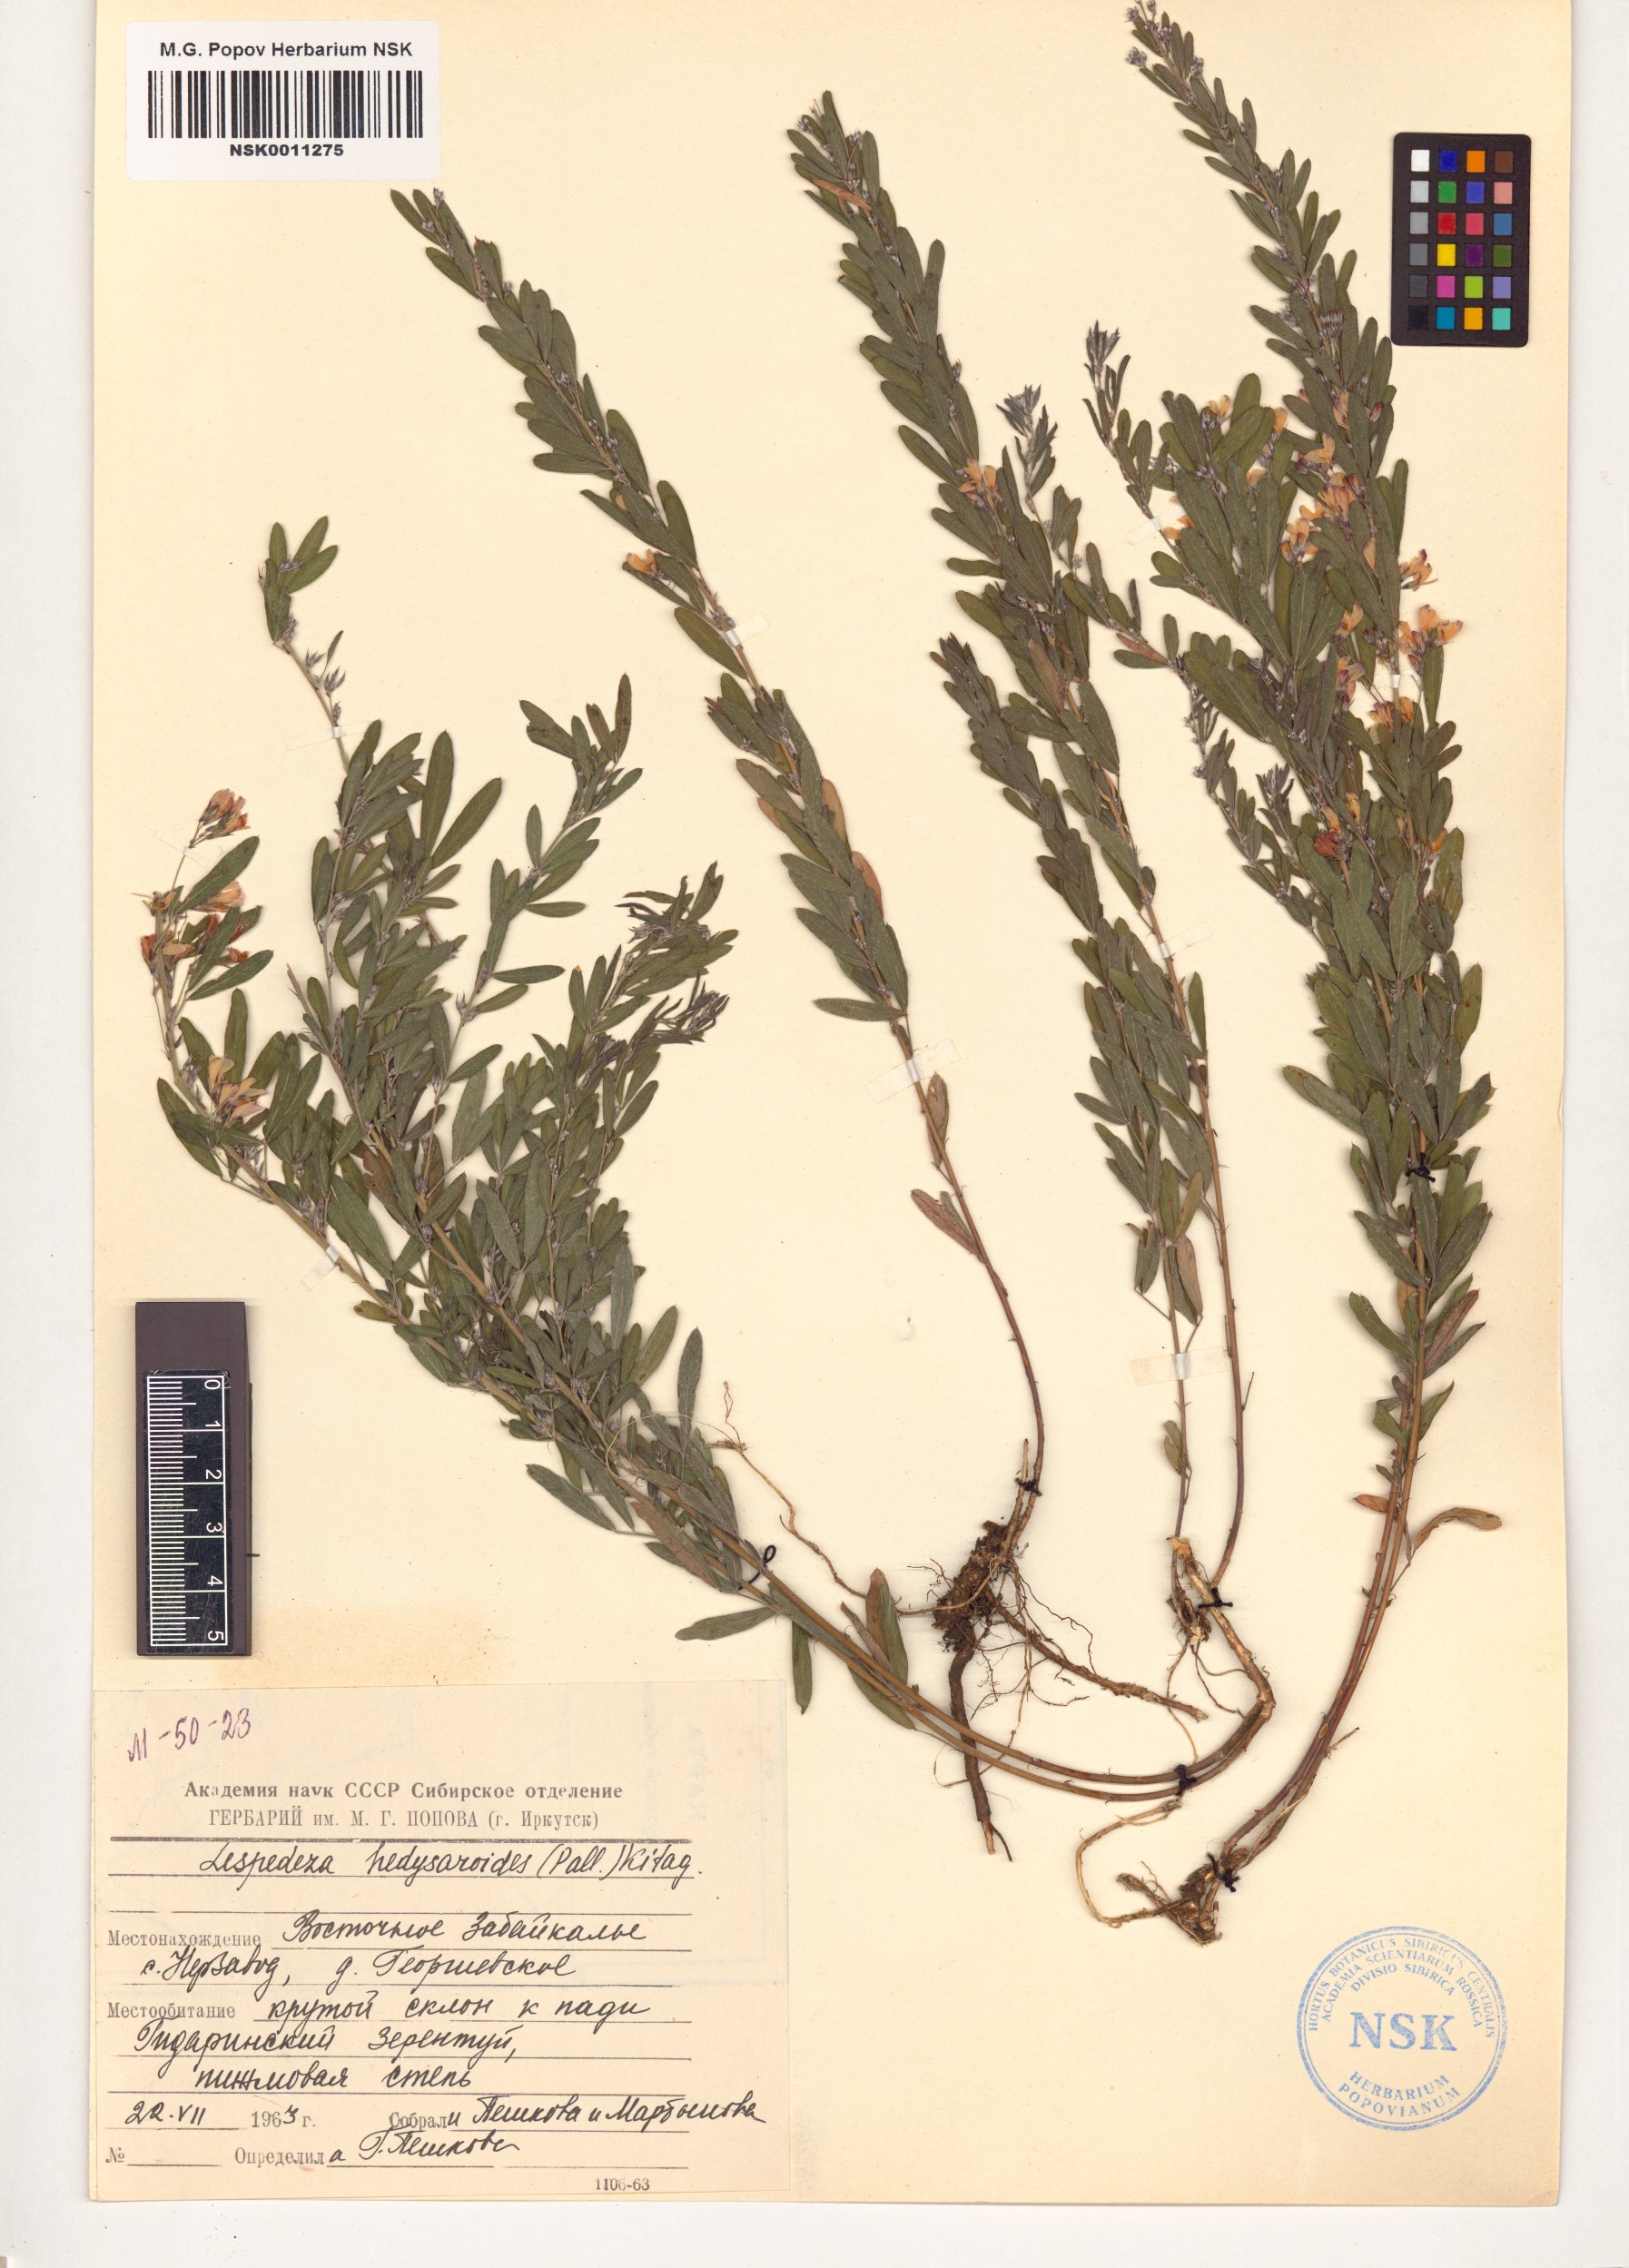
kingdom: Plantae
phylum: Tracheophyta
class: Magnoliopsida
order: Fabales
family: Fabaceae
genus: Lespedeza
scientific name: Lespedeza juncea
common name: Siberian lespedeza
